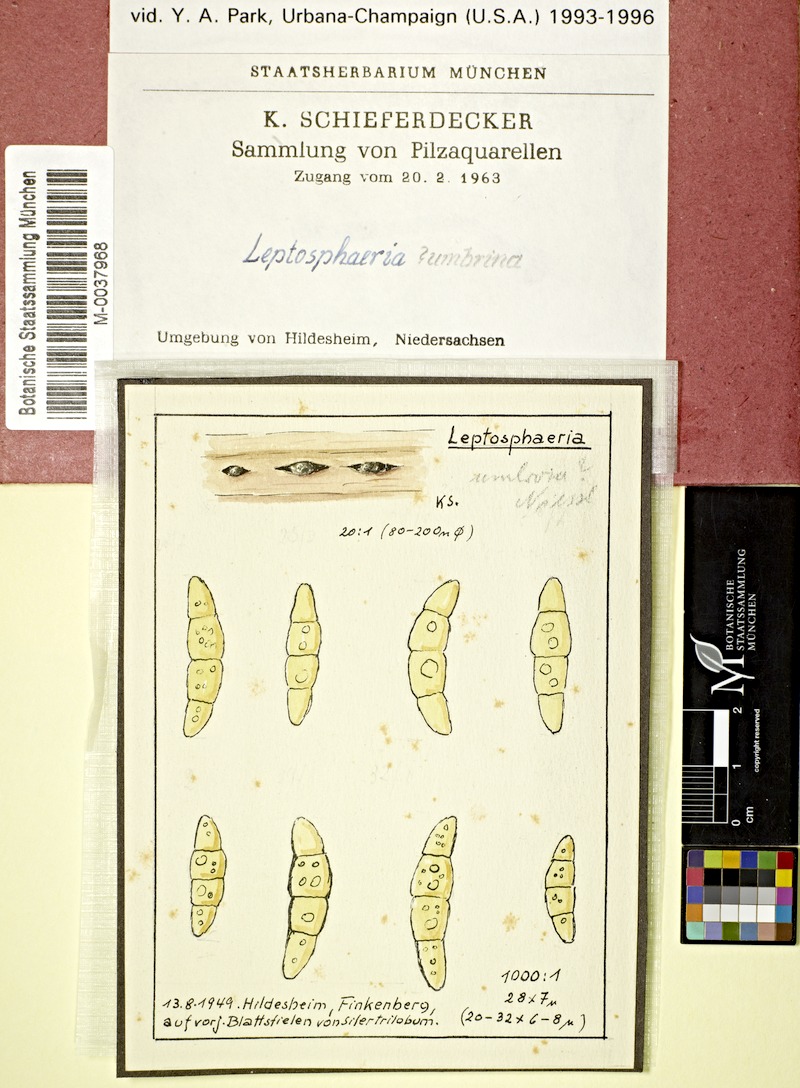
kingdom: Plantae
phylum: Tracheophyta
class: Magnoliopsida
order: Apiales
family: Apiaceae
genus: Laser
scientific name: Laser trilobum
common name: Laser
